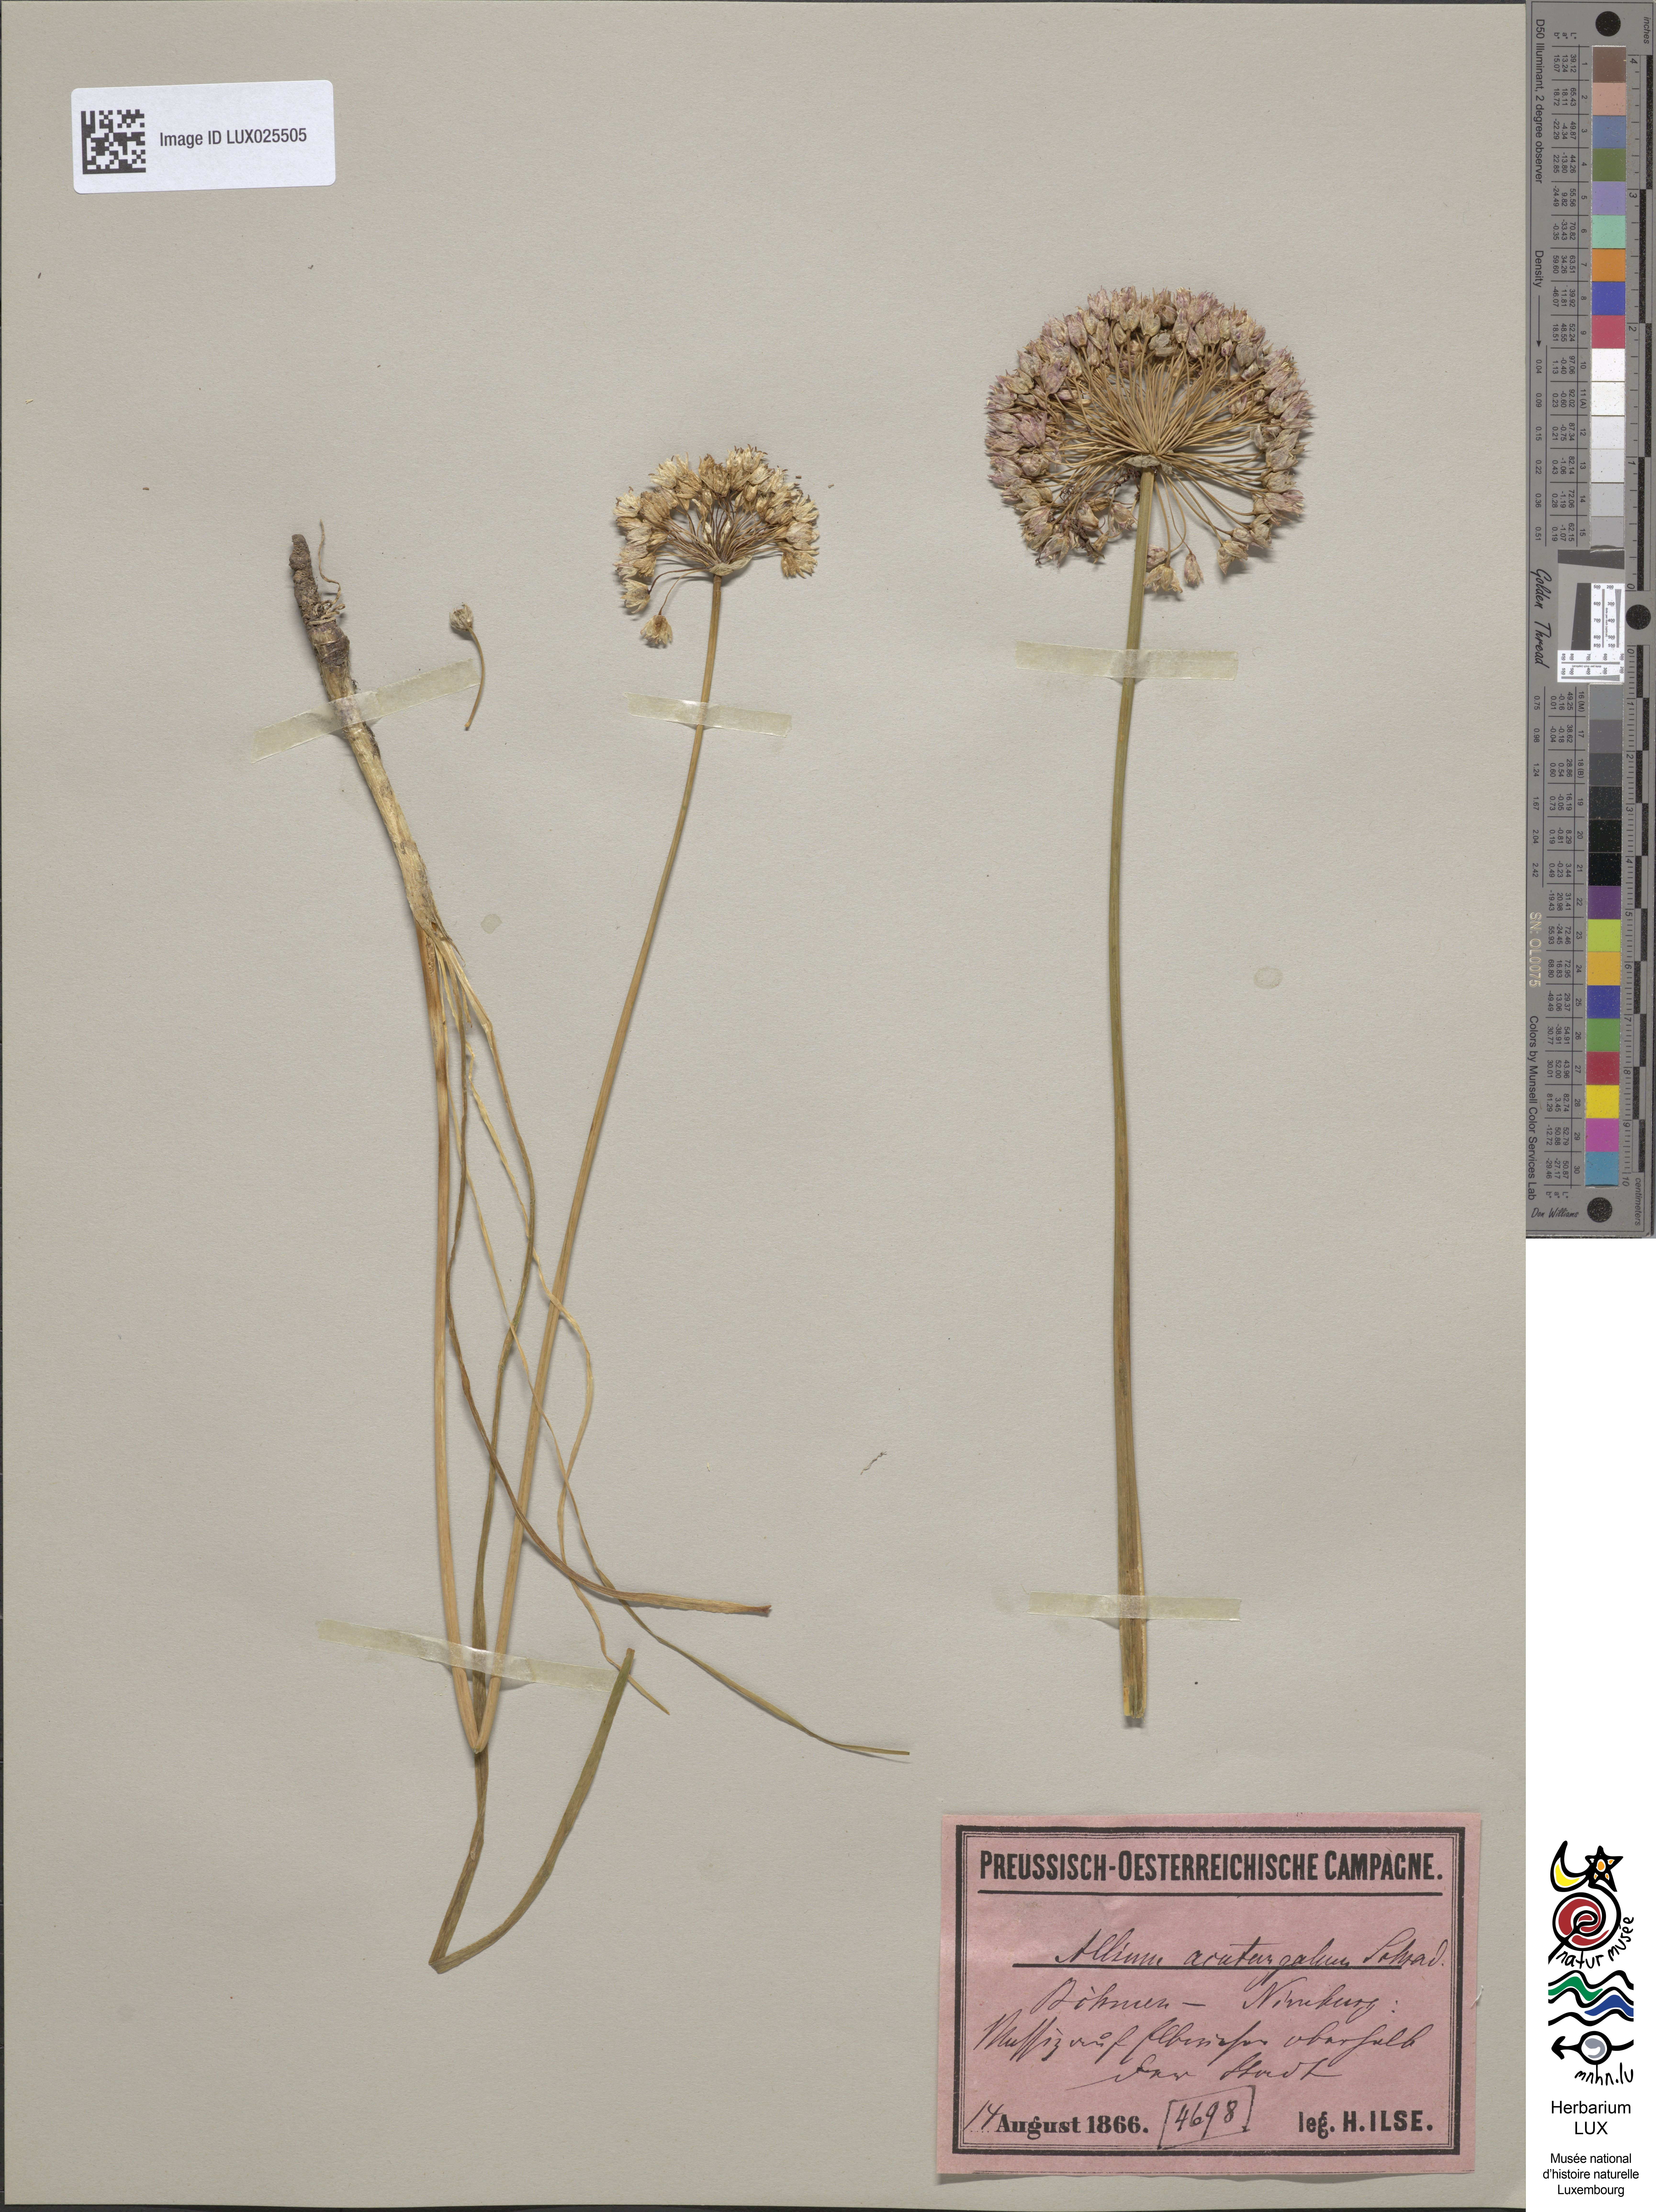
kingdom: Plantae
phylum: Tracheophyta
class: Liliopsida
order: Asparagales
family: Amaryllidaceae
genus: Allium
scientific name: Allium angulosum
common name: Mouse garlic
